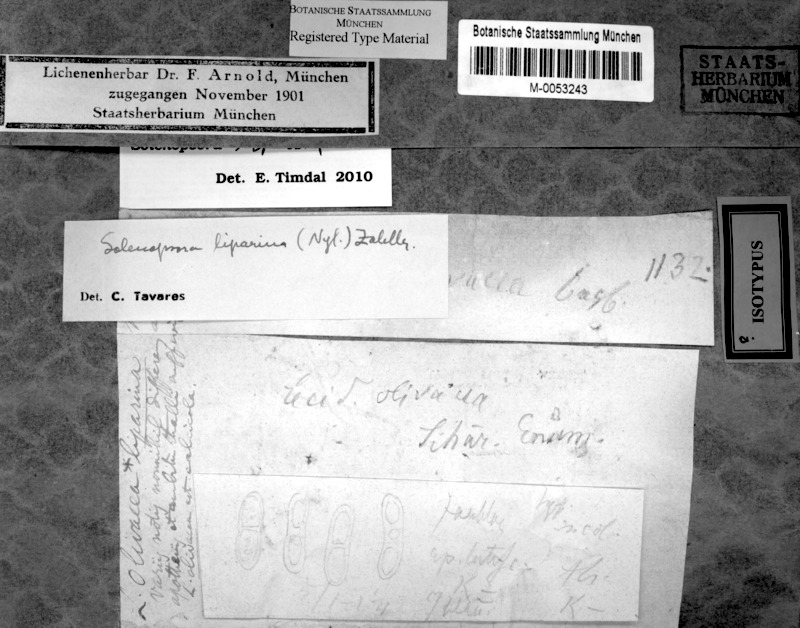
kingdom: Fungi
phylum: Ascomycota
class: Lecanoromycetes
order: Lecanorales
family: Catillariaceae
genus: Solenopsora
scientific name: Solenopsora liparina
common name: Serpentine solenopsora
